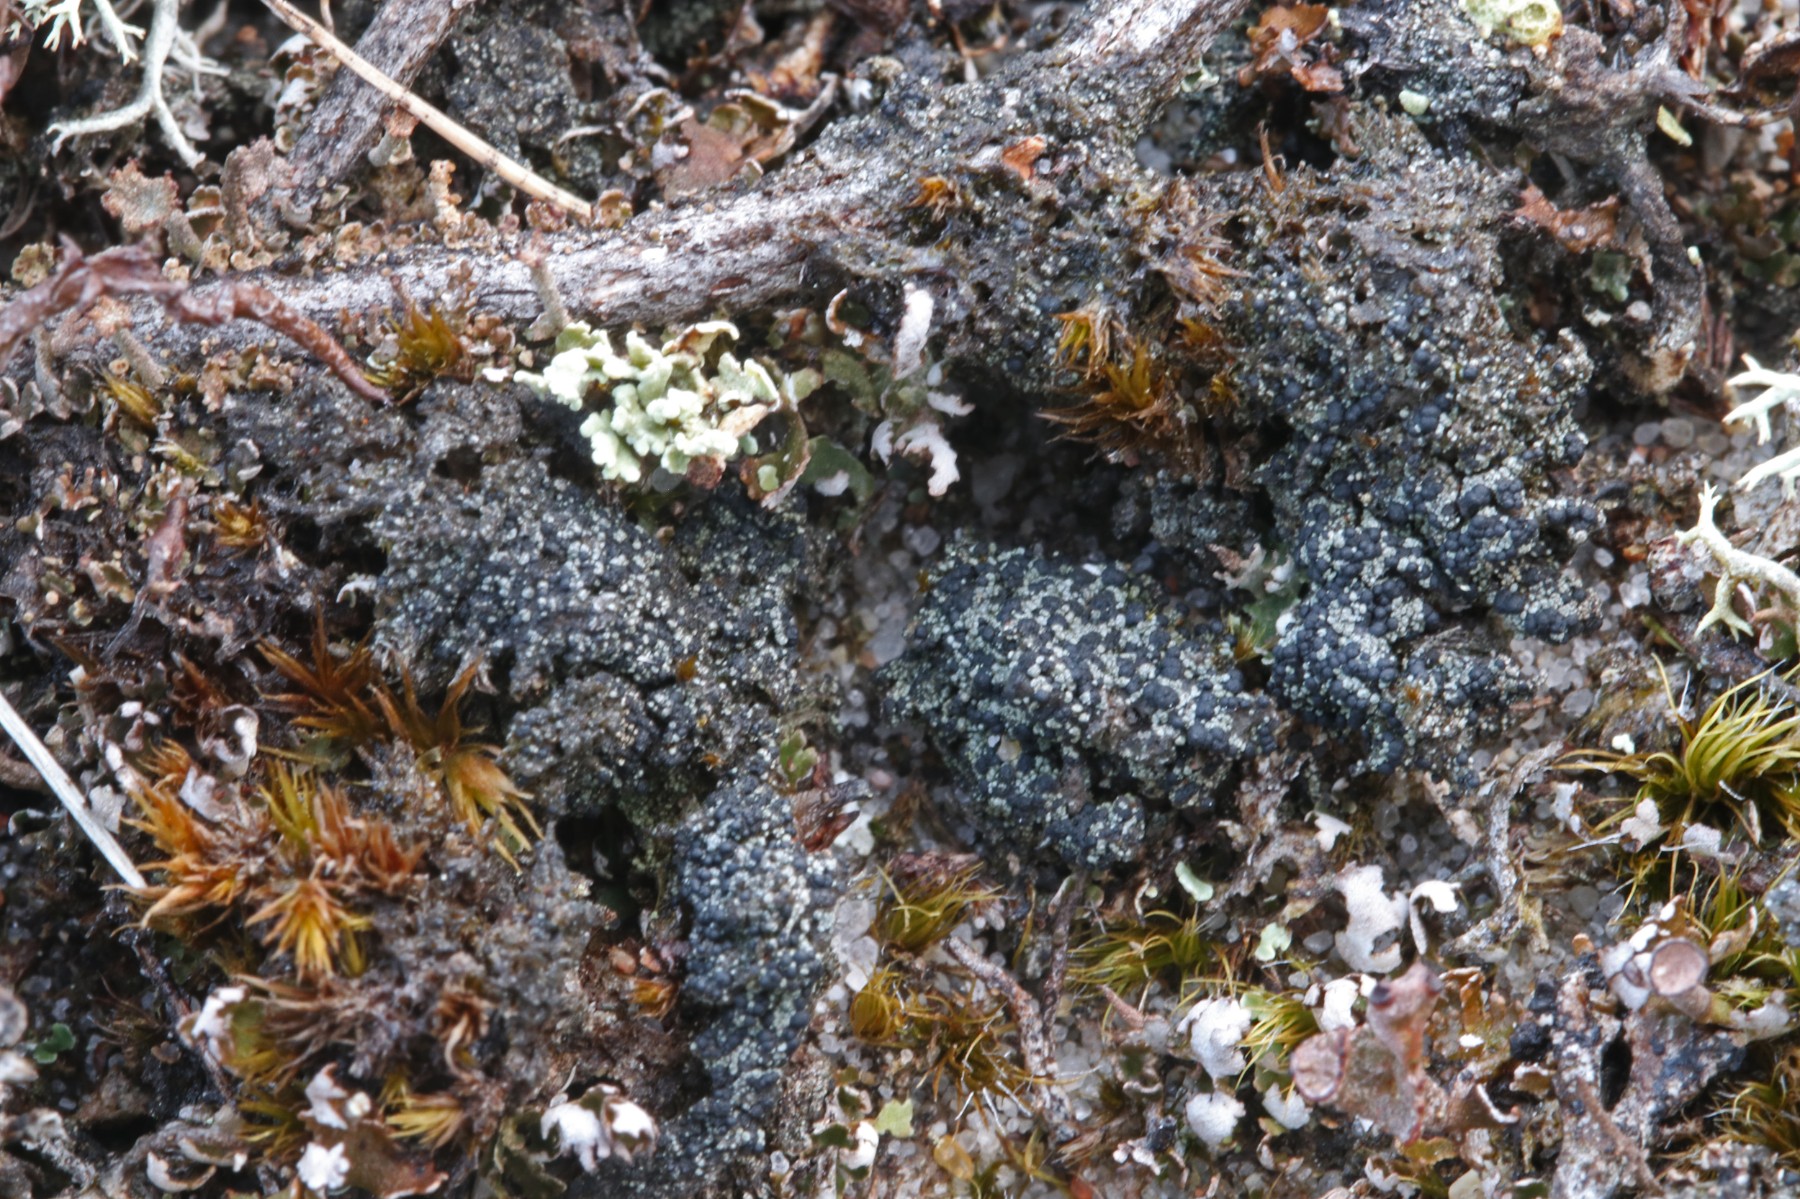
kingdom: Fungi
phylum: Ascomycota
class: Lecanoromycetes
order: Lecanorales
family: Byssolomataceae
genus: Micarea
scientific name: Micarea lignaria
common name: tørve-knaplav
